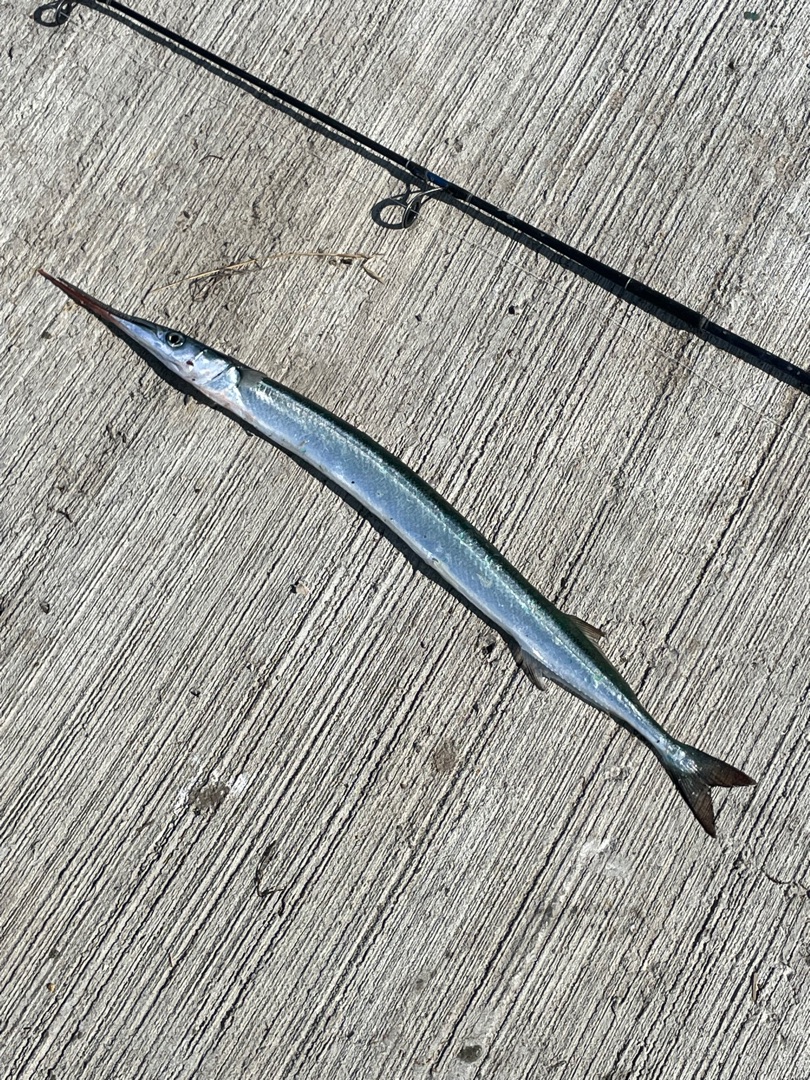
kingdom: Animalia
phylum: Chordata
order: Beloniformes
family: Belonidae
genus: Belone
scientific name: Belone belone
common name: Hornfisk
